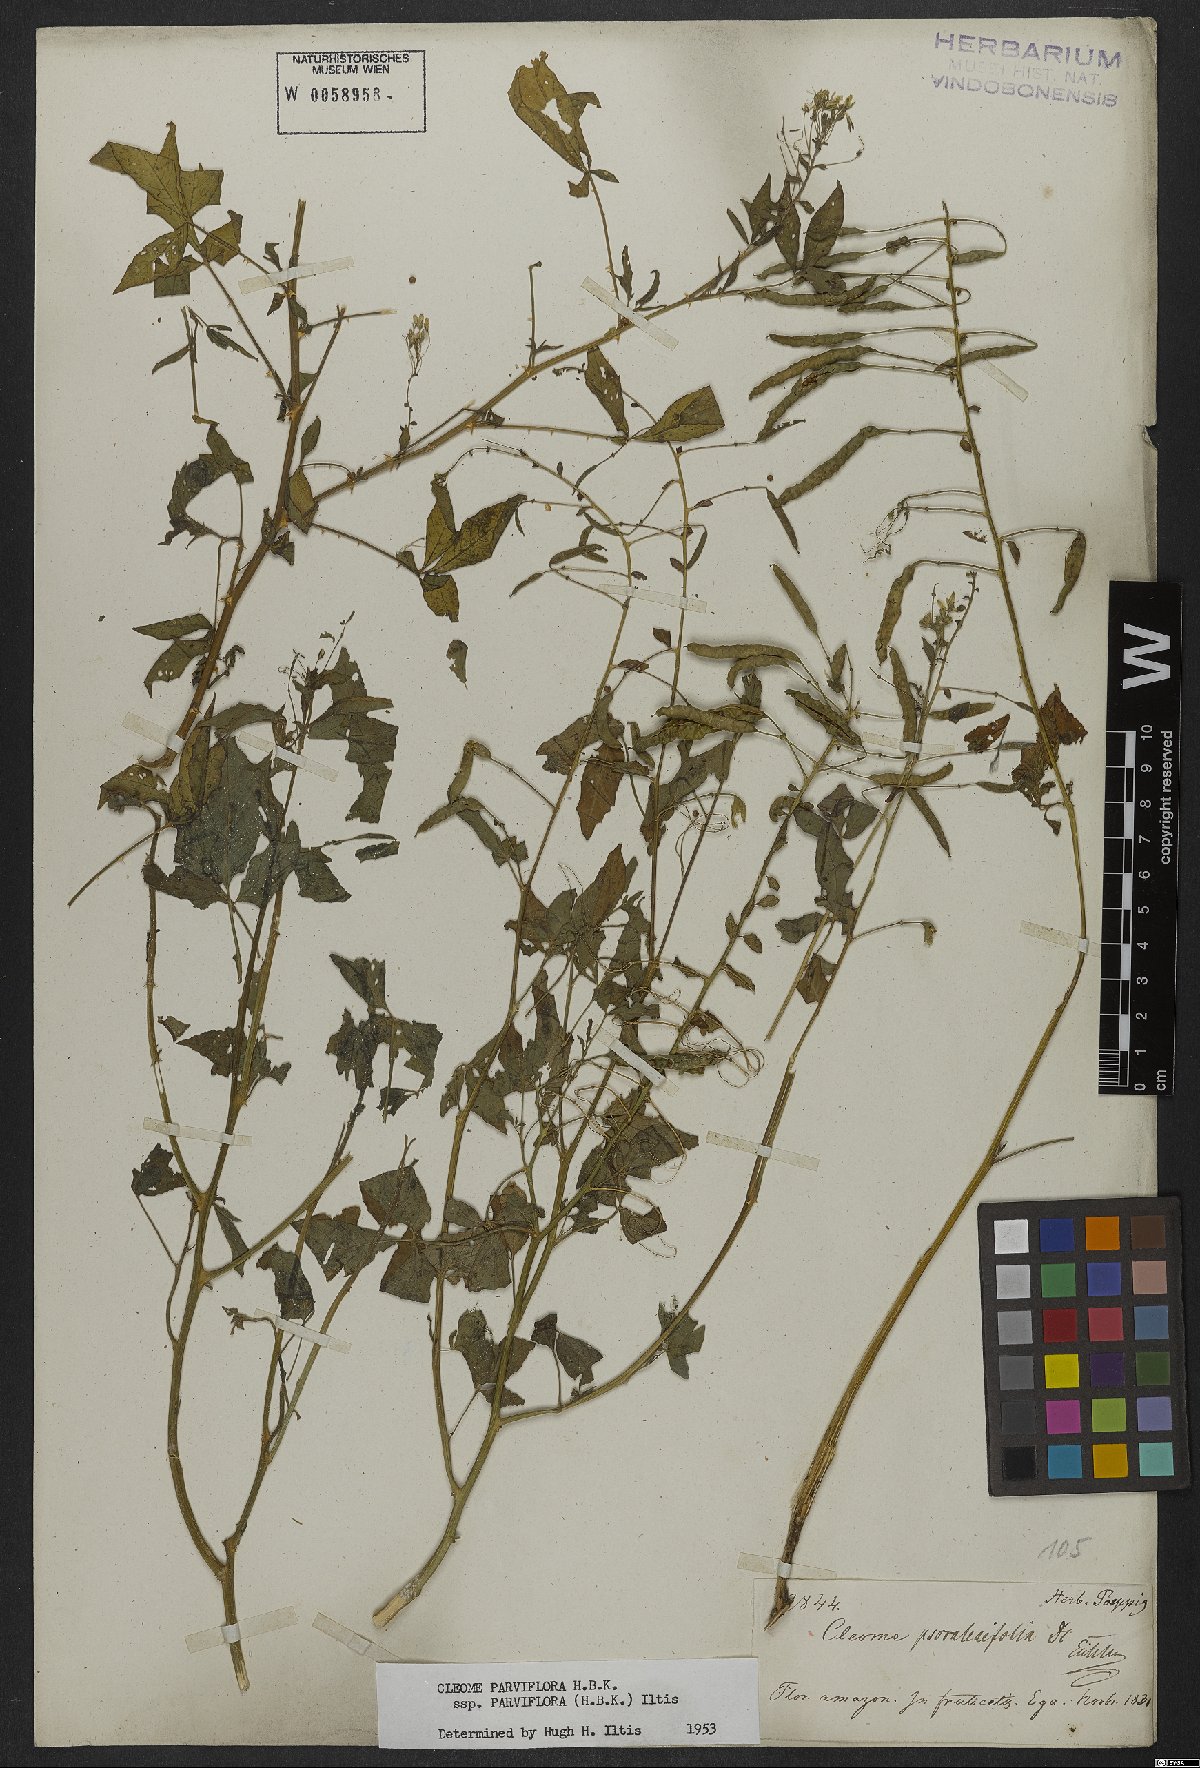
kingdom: Plantae
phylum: Tracheophyta
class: Magnoliopsida
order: Brassicales
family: Cleomaceae
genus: Tarenaya
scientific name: Tarenaya parviflora
